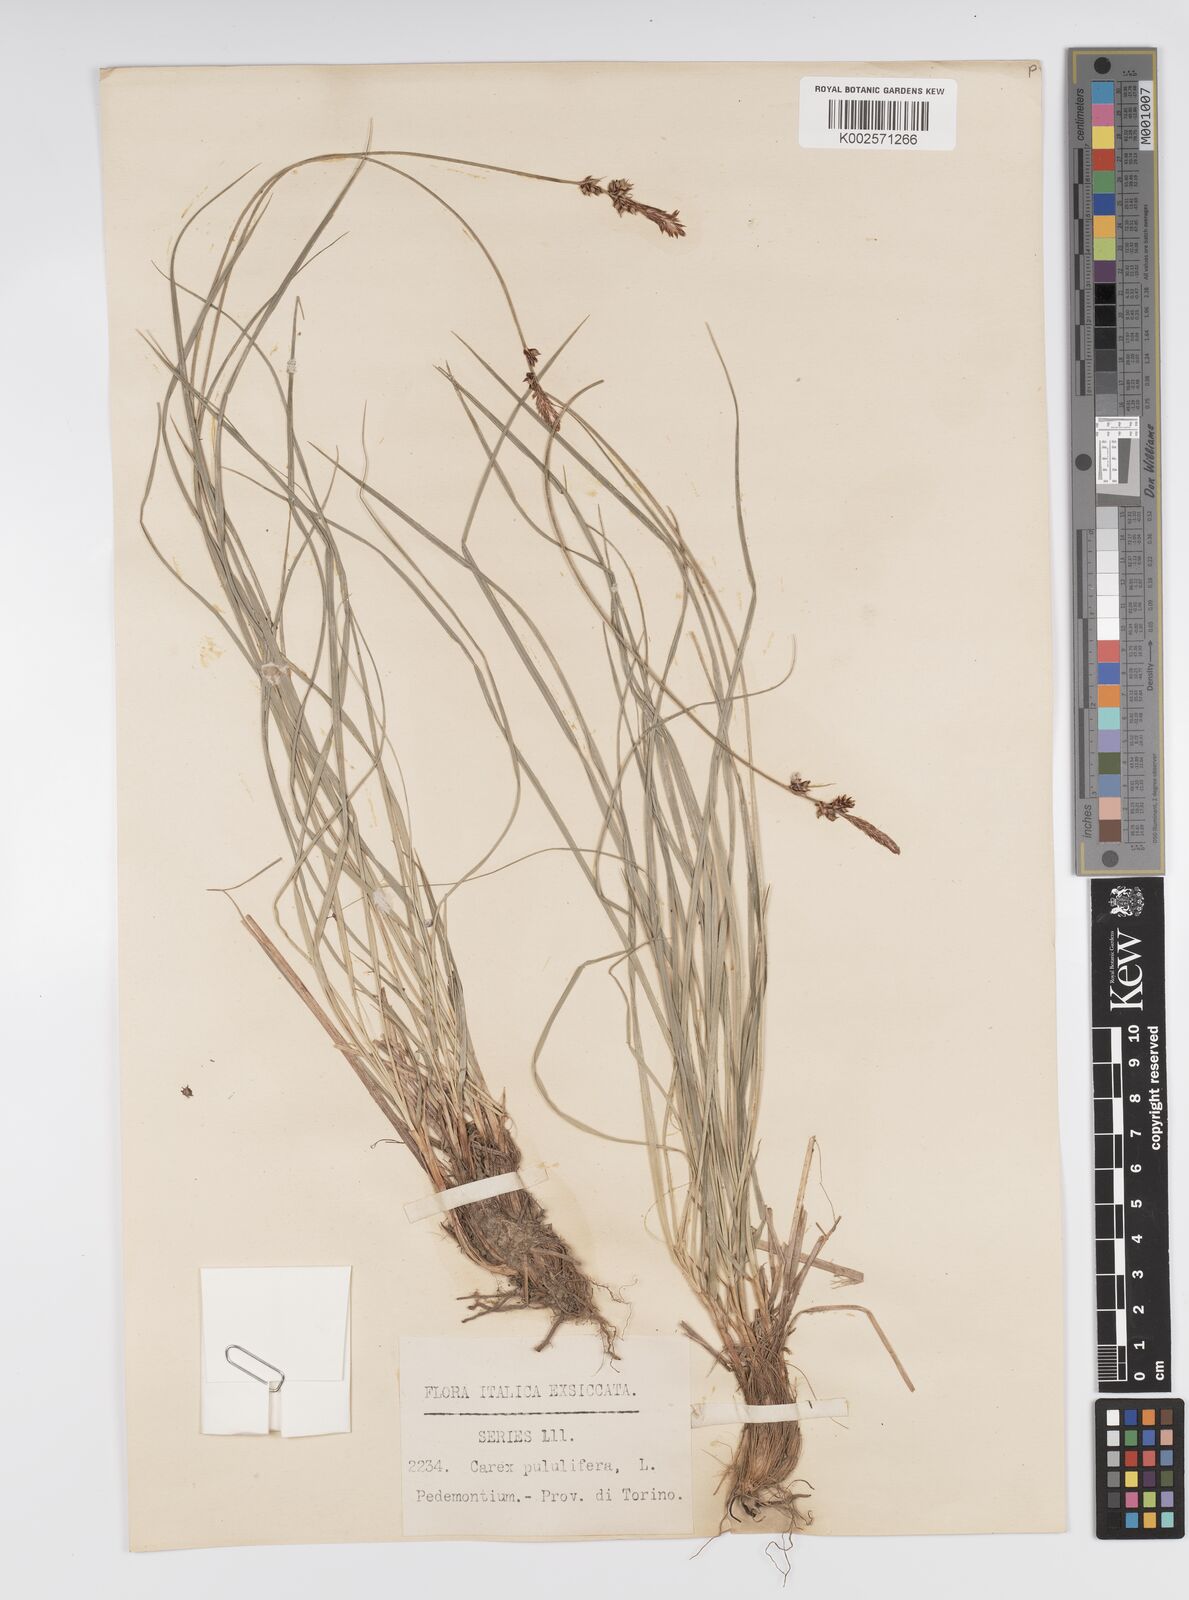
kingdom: Plantae
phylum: Tracheophyta
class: Liliopsida
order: Poales
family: Cyperaceae
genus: Carex
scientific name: Carex fritschii
